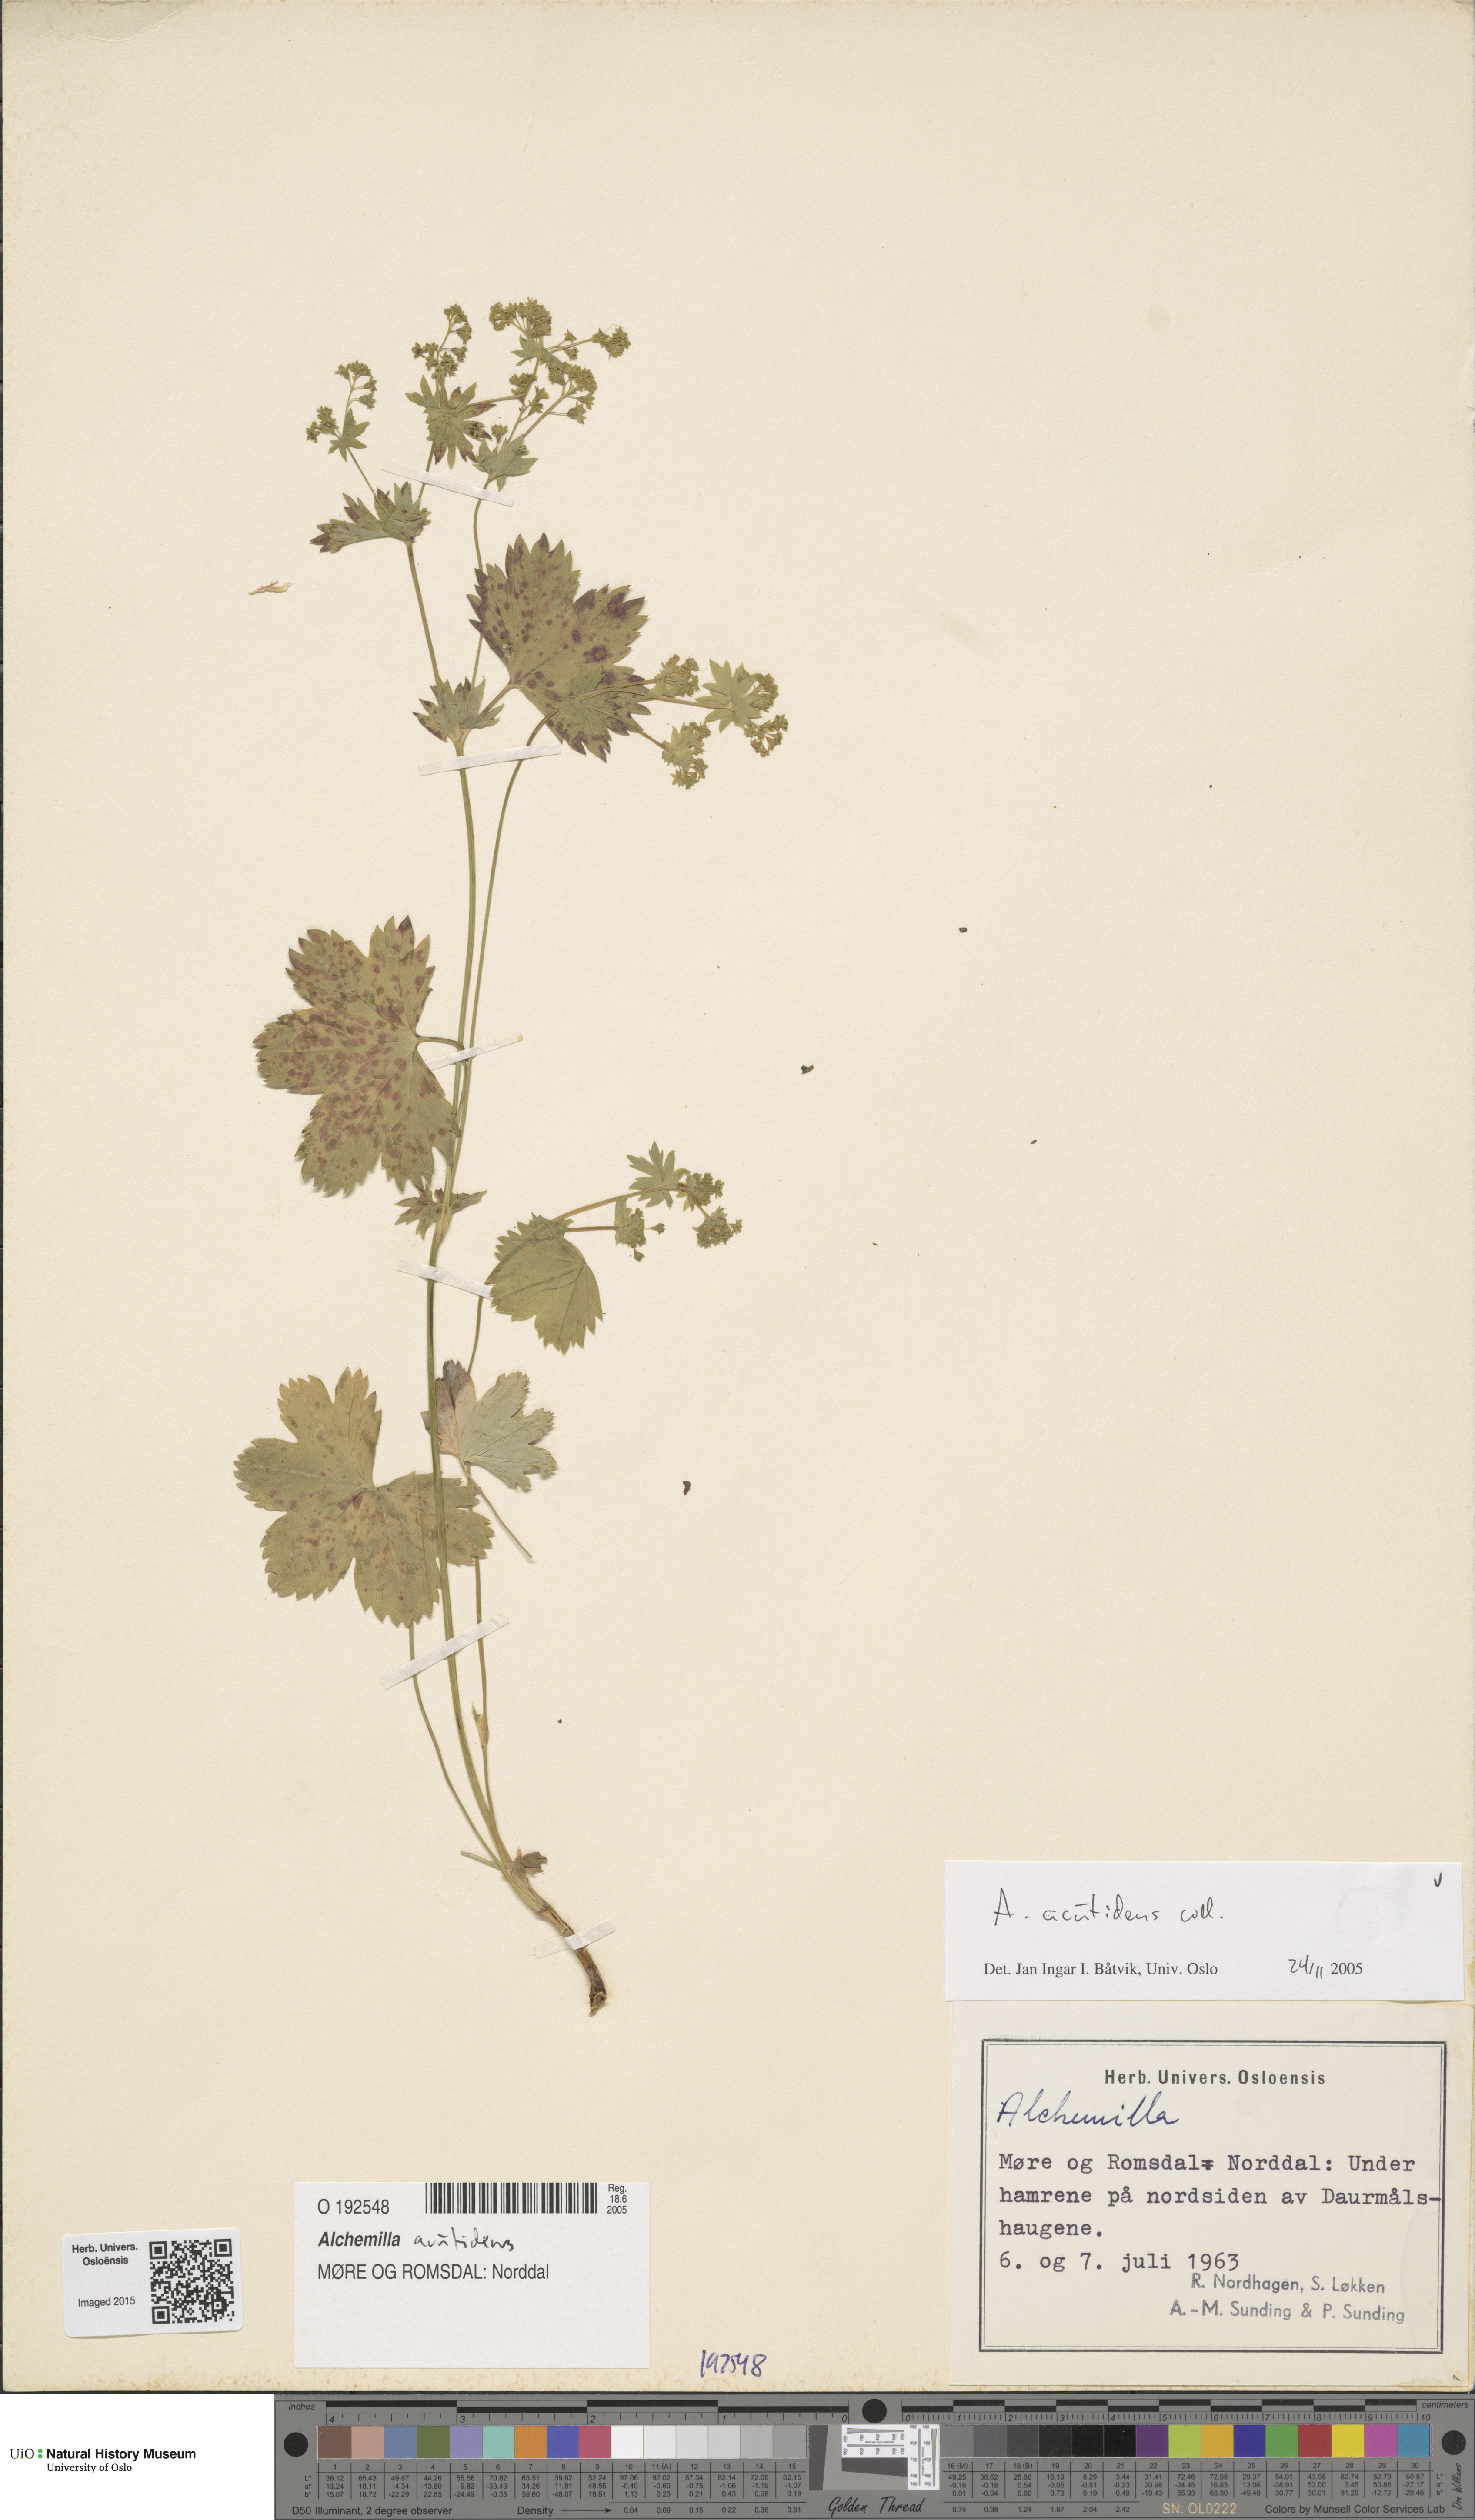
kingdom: Plantae
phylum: Tracheophyta
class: Magnoliopsida
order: Rosales
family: Rosaceae
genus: Alchemilla
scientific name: Alchemilla wichurae
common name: Rock lady's mantle
